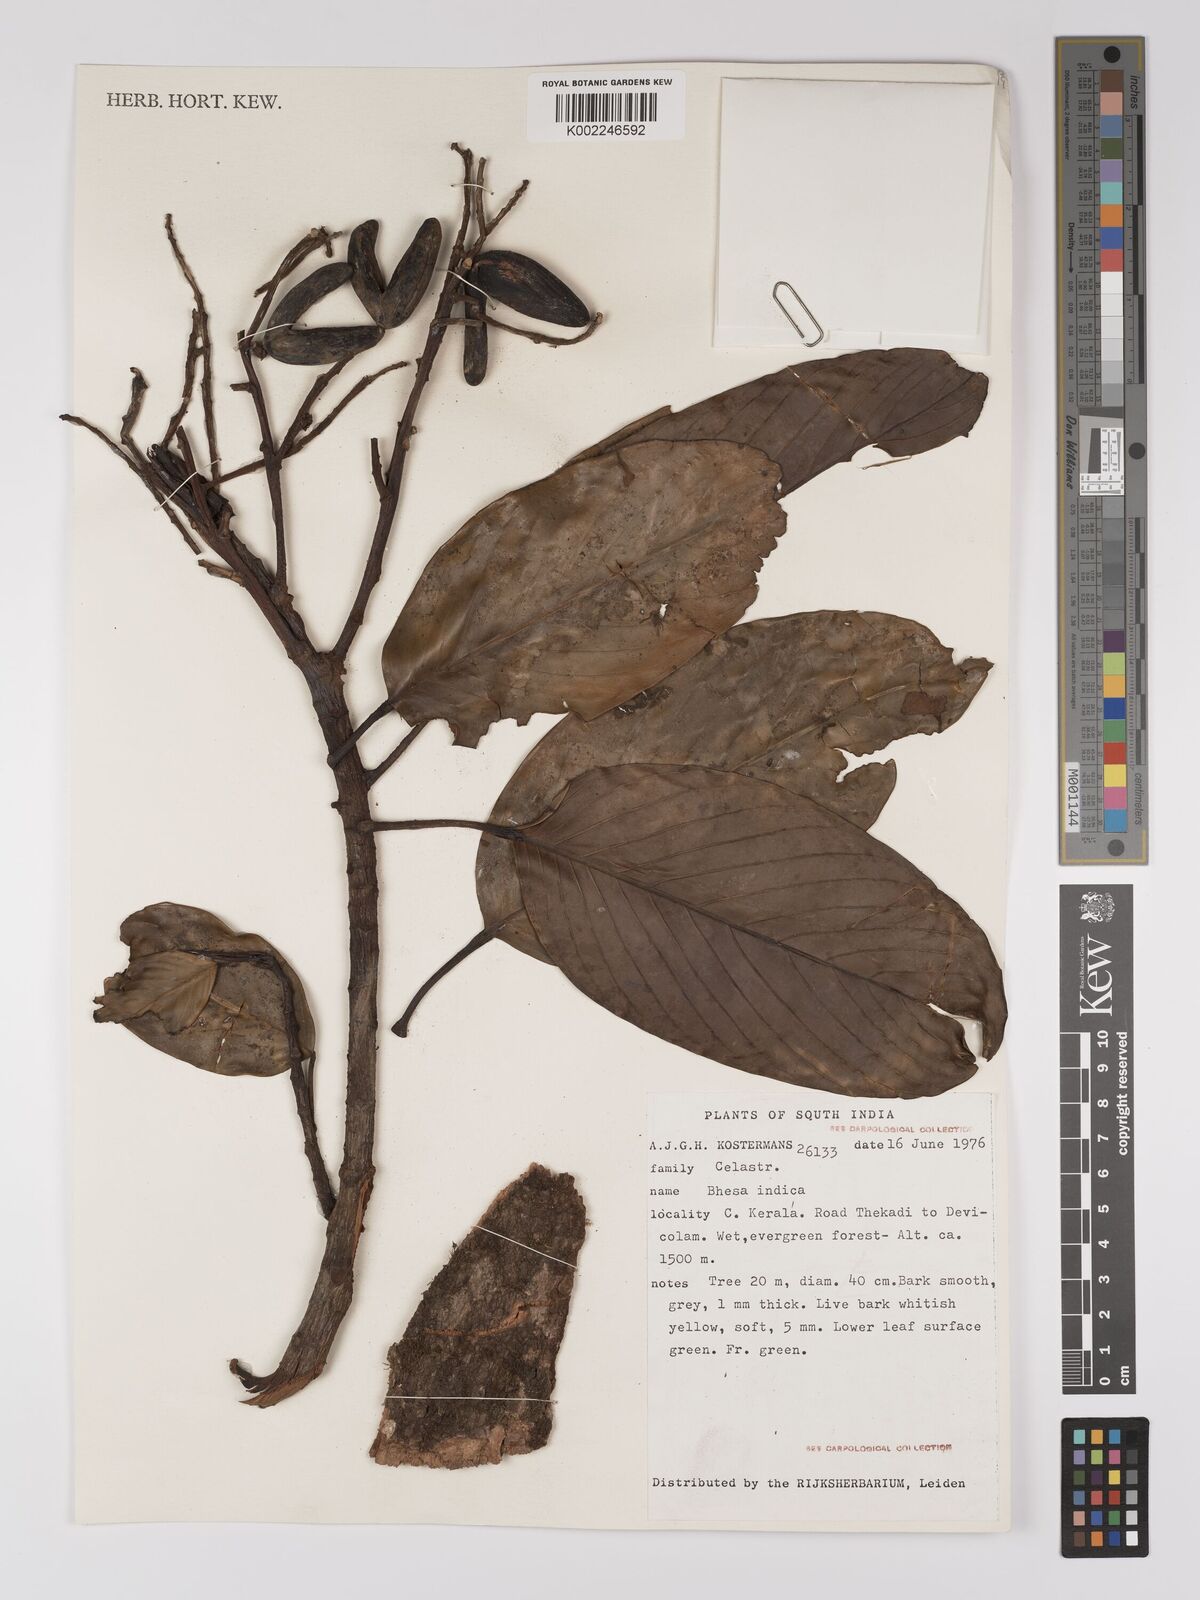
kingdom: Plantae
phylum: Tracheophyta
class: Magnoliopsida
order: Malpighiales
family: Centroplacaceae
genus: Bhesa
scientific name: Bhesa indica
